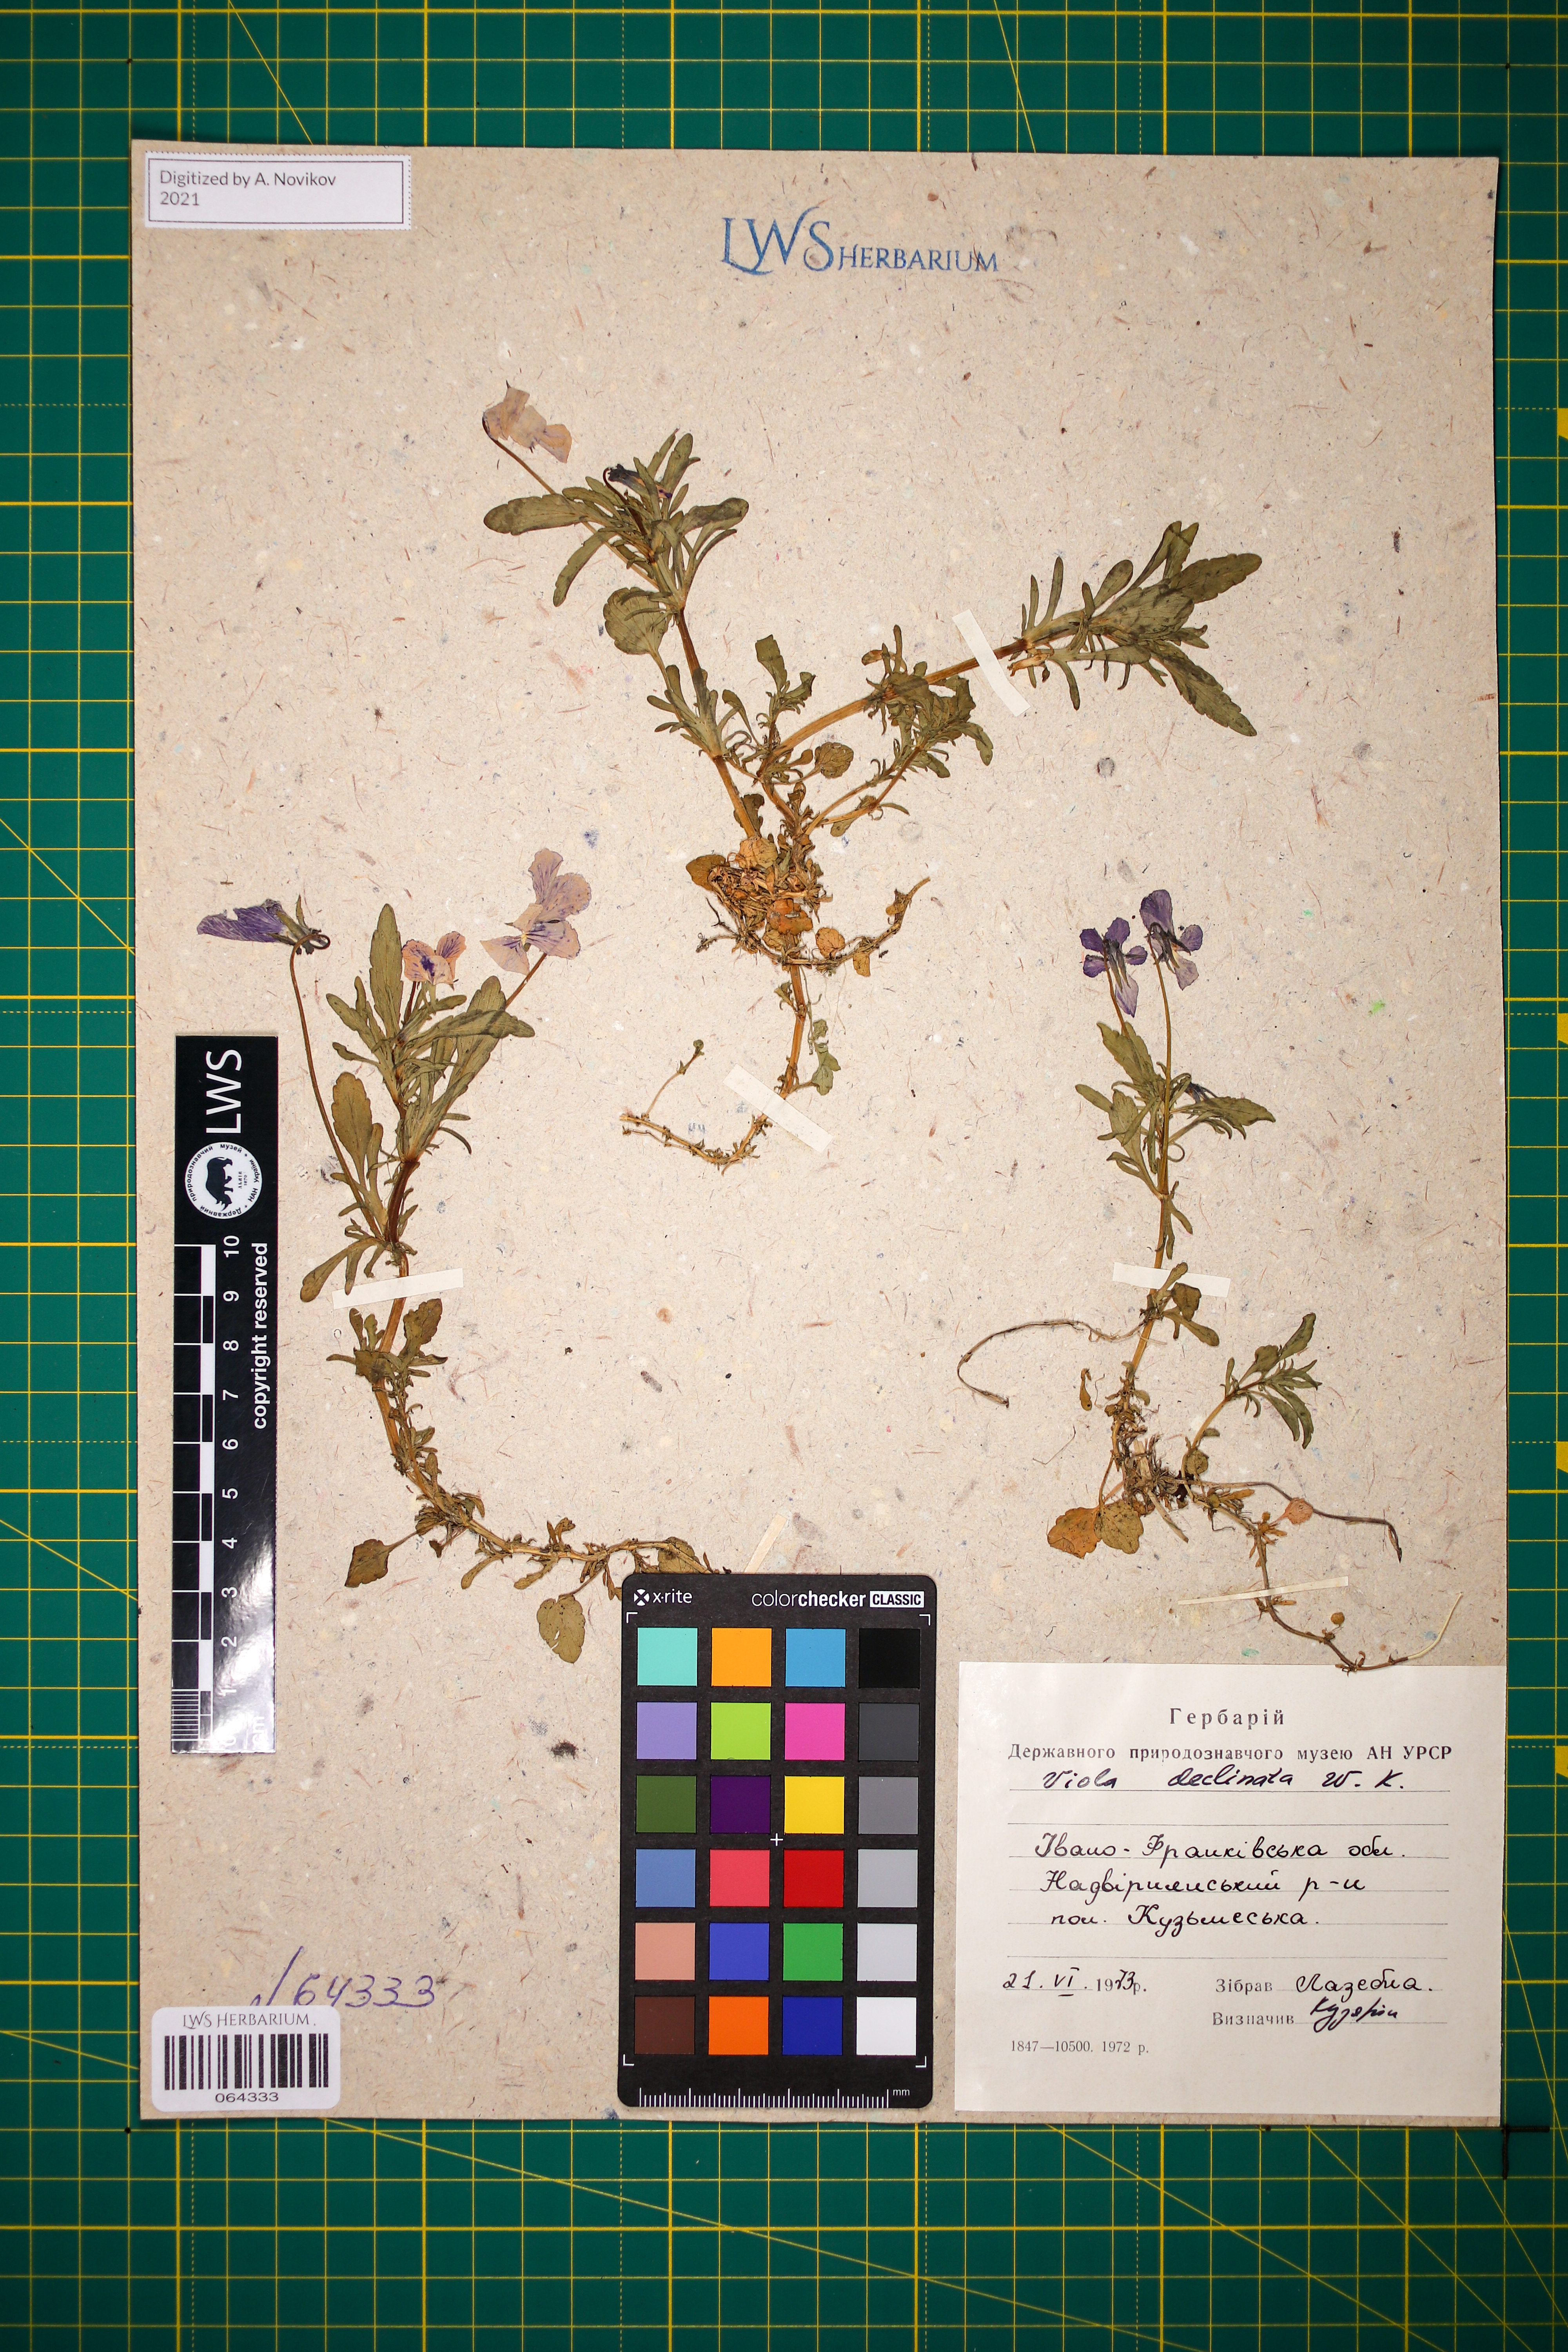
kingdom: Plantae
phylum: Tracheophyta
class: Magnoliopsida
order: Malpighiales
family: Violaceae
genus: Viola
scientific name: Viola declinata
